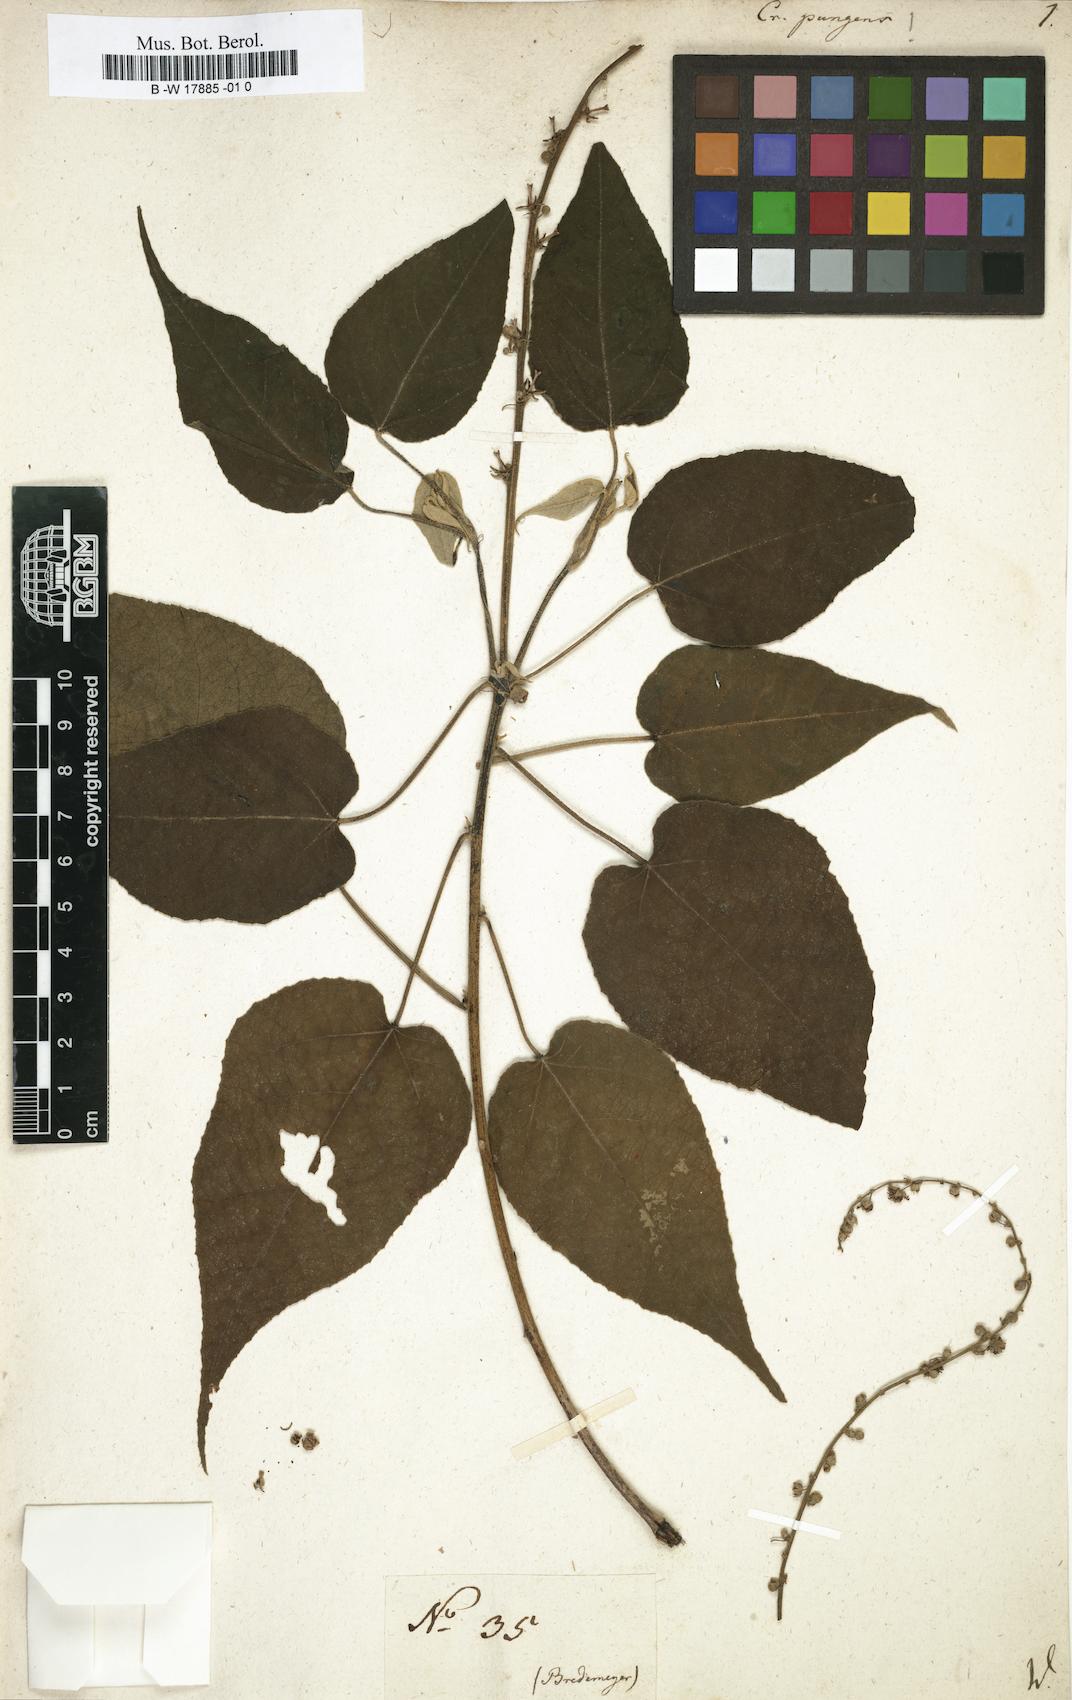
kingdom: Plantae
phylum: Tracheophyta
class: Magnoliopsida
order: Malpighiales
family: Euphorbiaceae
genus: Croton
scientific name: Croton pungens
